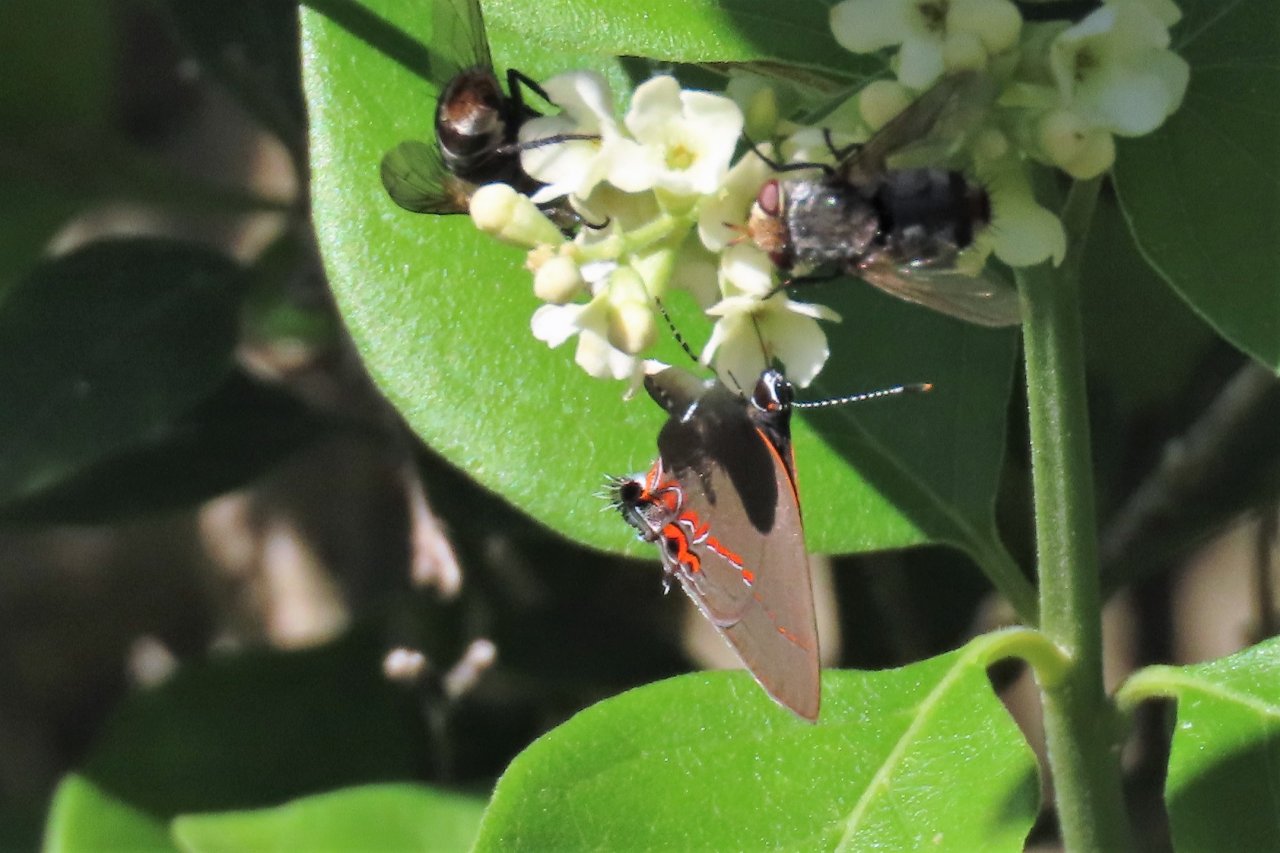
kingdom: Animalia
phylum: Arthropoda
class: Insecta
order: Lepidoptera
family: Lycaenidae
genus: Calycopis
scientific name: Calycopis isobeon
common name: Dusky-blue Groundstreak
